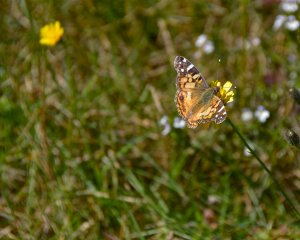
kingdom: Animalia
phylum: Arthropoda
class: Insecta
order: Lepidoptera
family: Nymphalidae
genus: Vanessa
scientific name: Vanessa virginiensis
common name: American Lady
